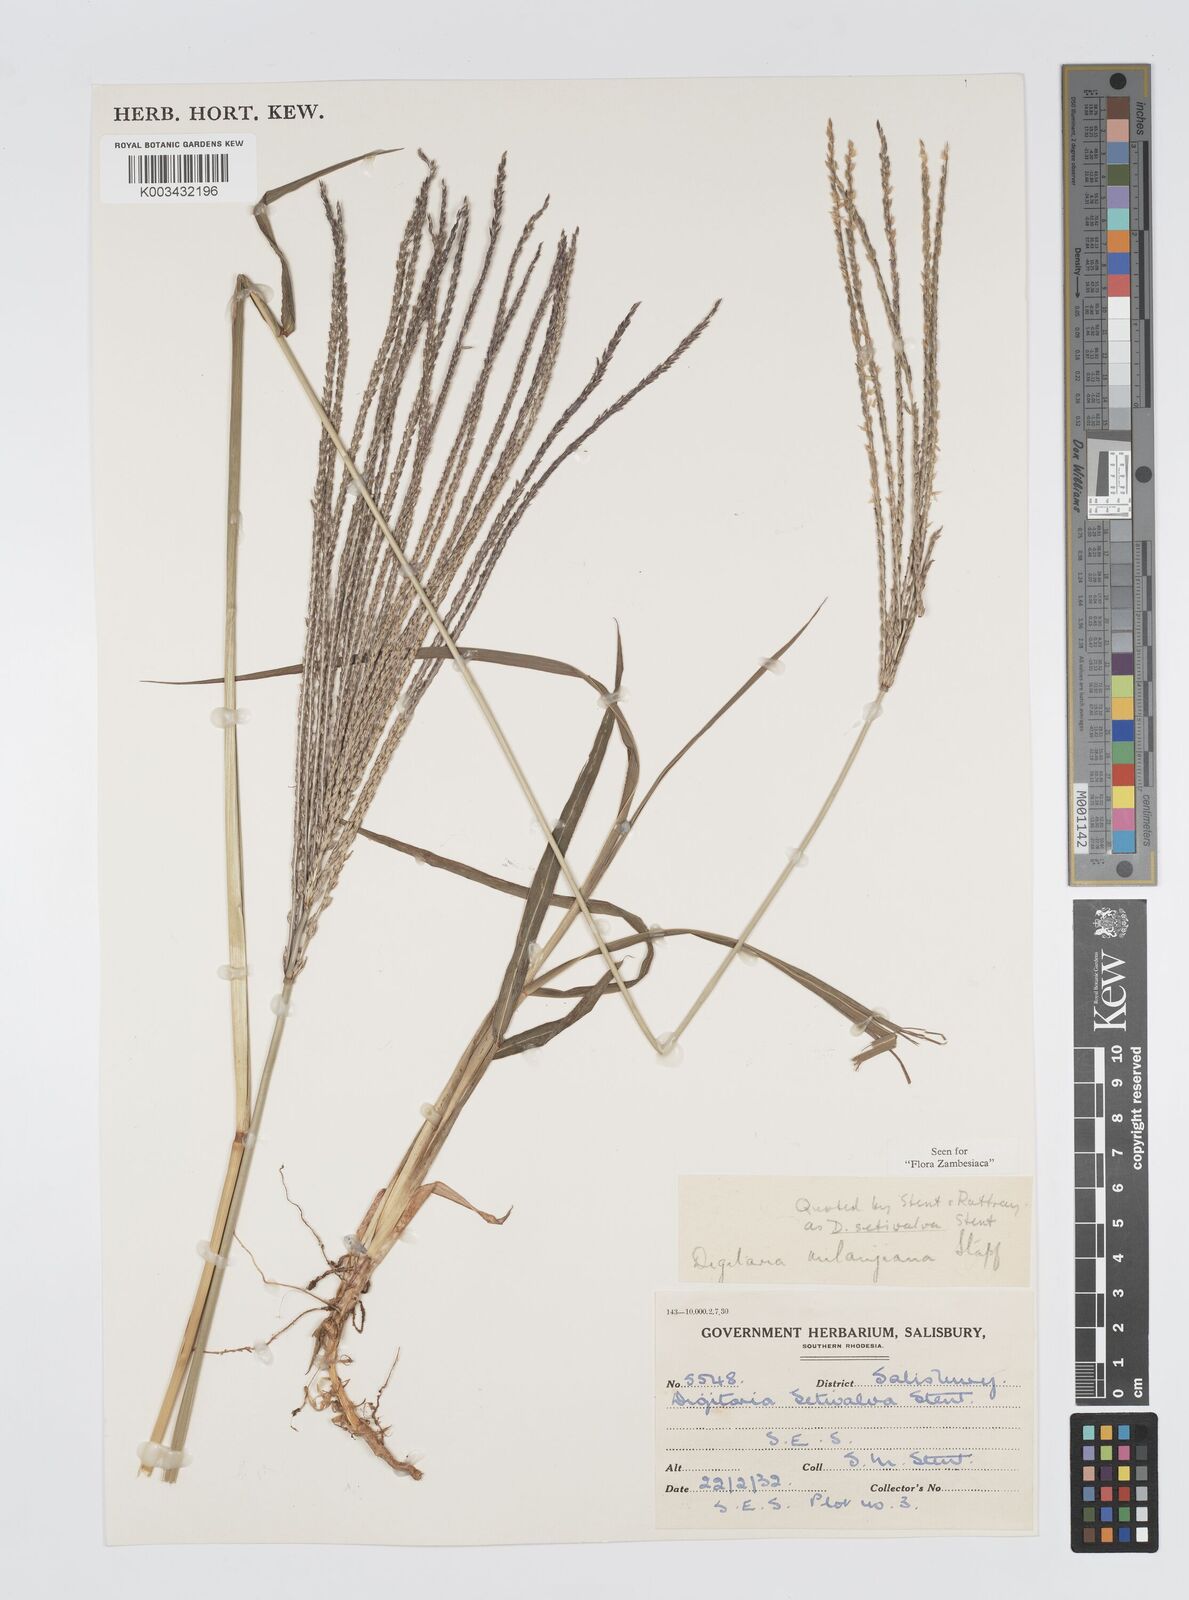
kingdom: Plantae
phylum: Tracheophyta
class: Liliopsida
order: Poales
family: Poaceae
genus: Digitaria
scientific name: Digitaria milanjiana
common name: Madagascar crabgrass
